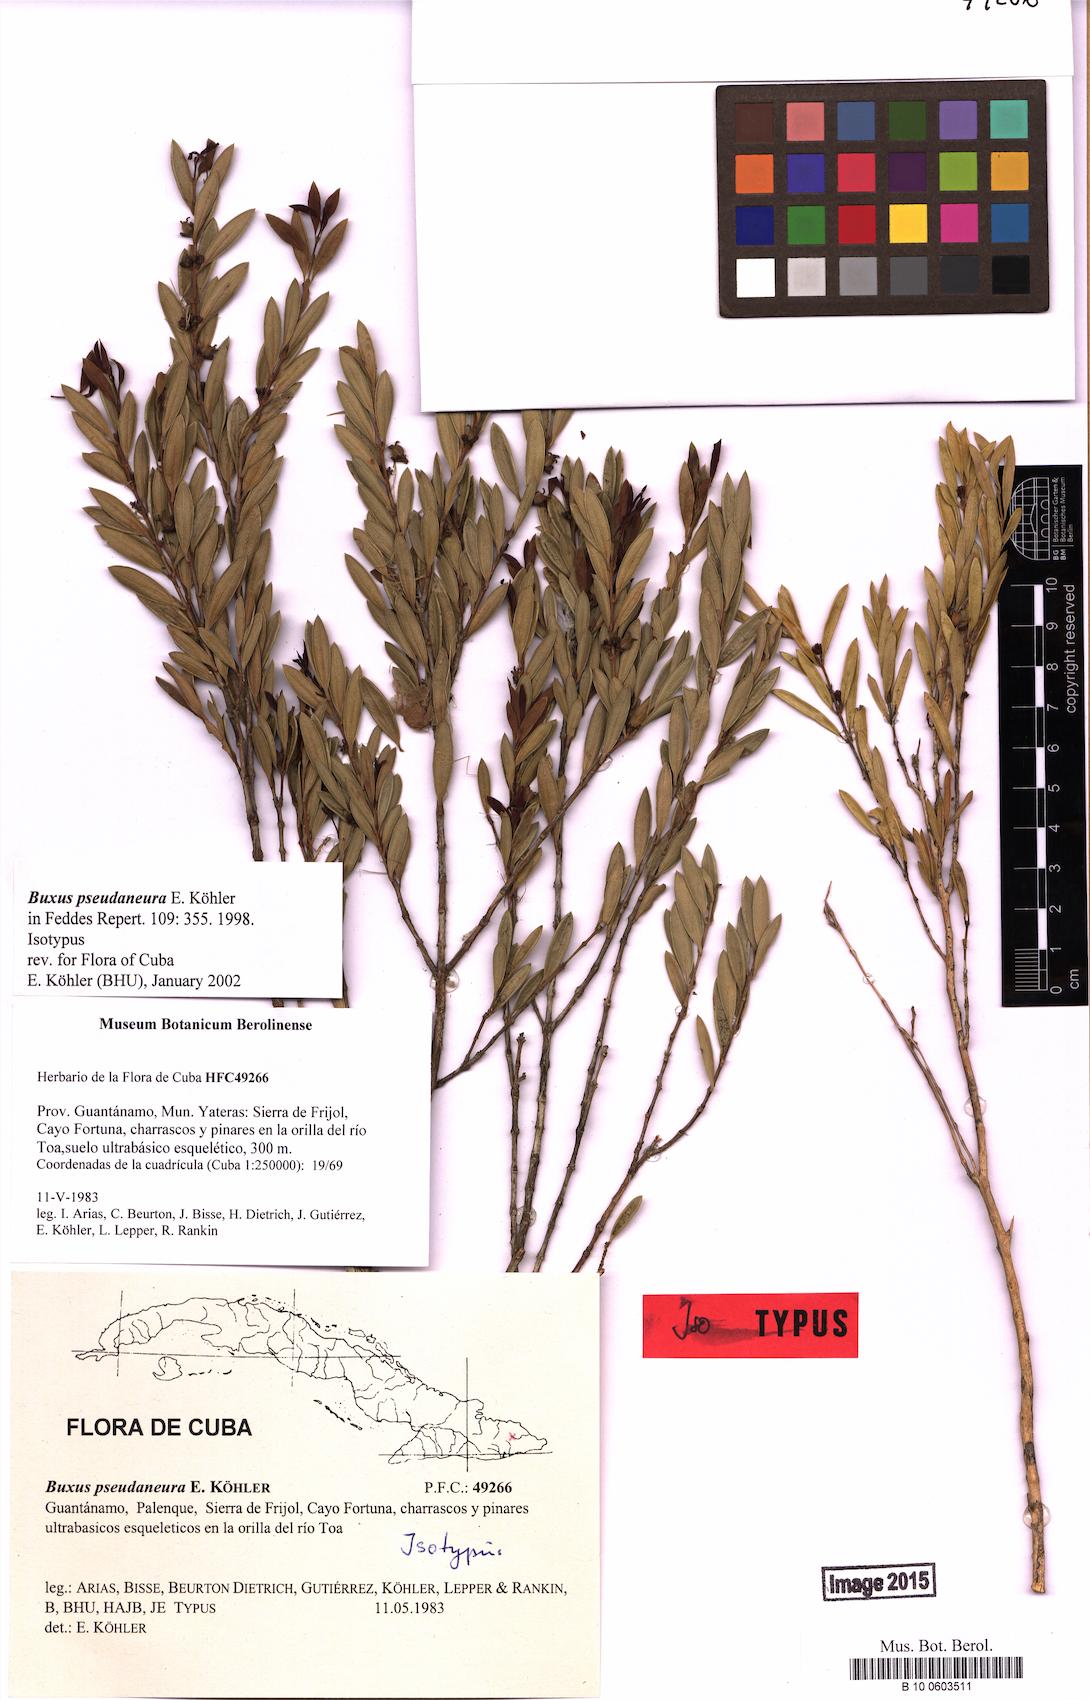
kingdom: Plantae
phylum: Tracheophyta
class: Magnoliopsida
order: Buxales
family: Buxaceae
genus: Buxus
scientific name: Buxus pseudaneura
